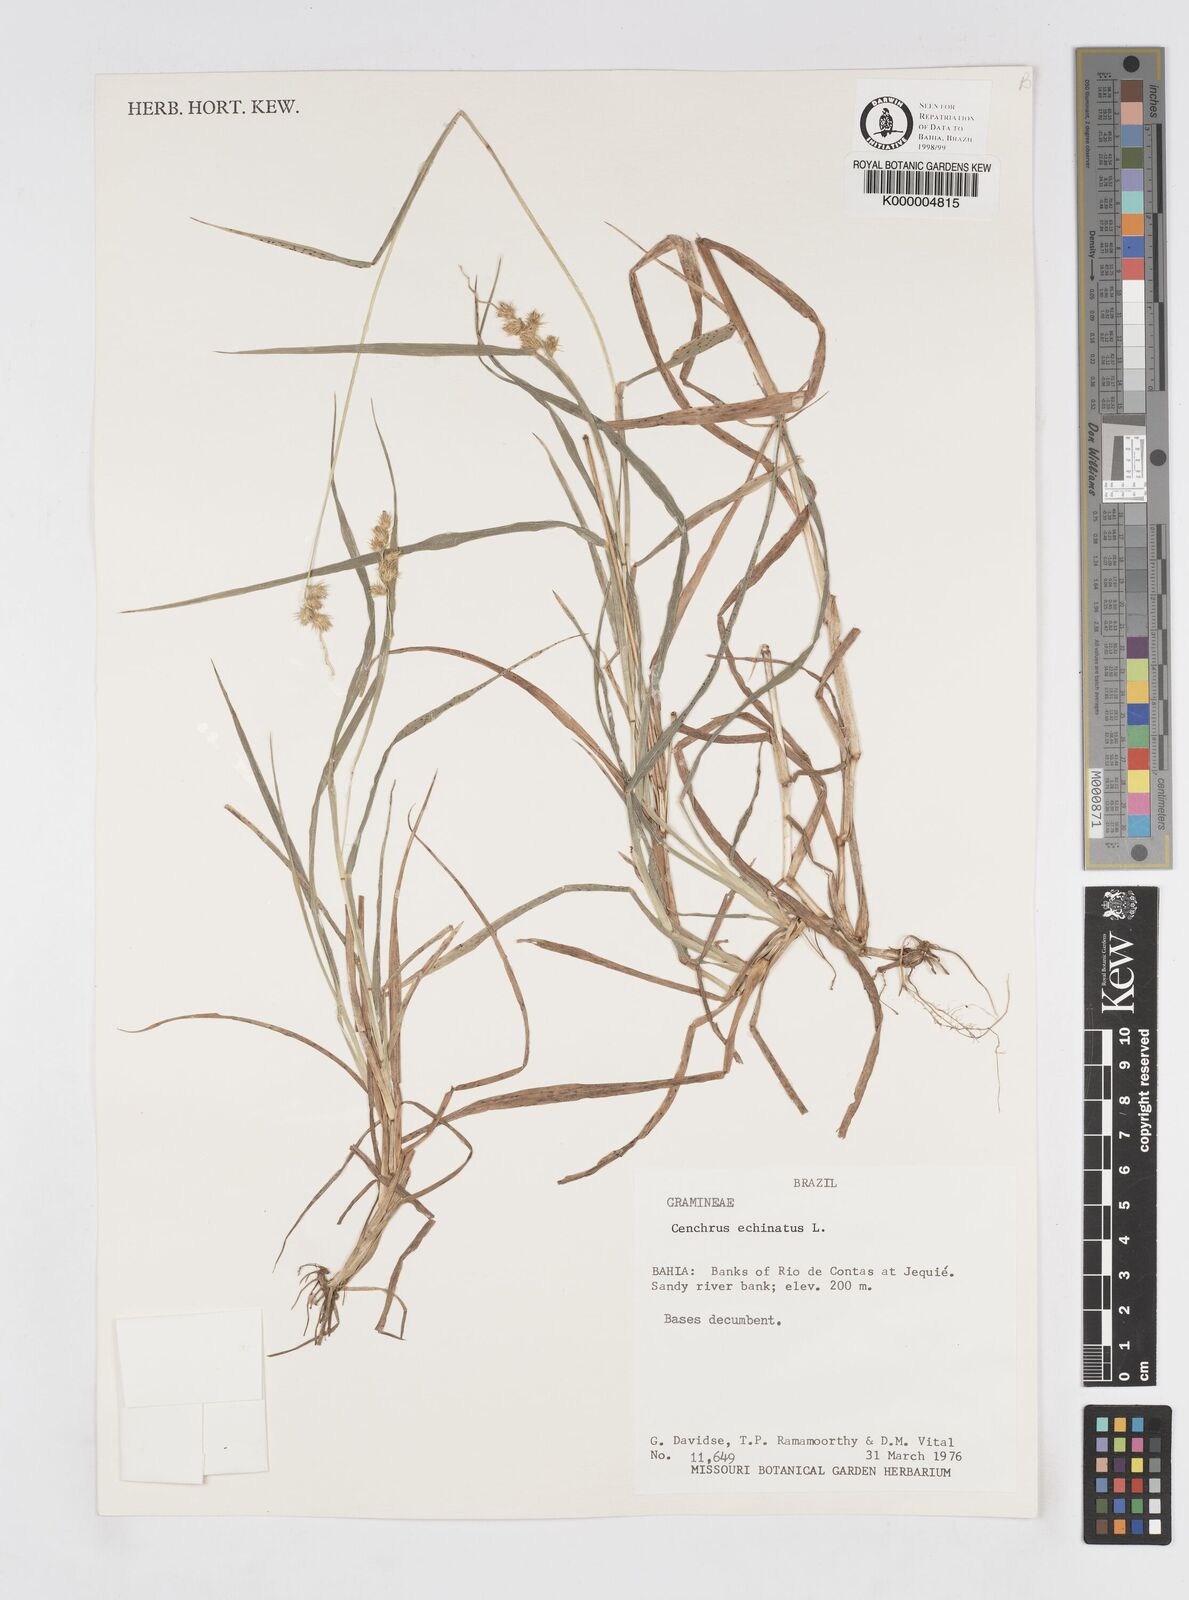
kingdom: Plantae
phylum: Tracheophyta
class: Liliopsida
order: Poales
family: Poaceae
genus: Cenchrus
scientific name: Cenchrus echinatus
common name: Southern sandbur
